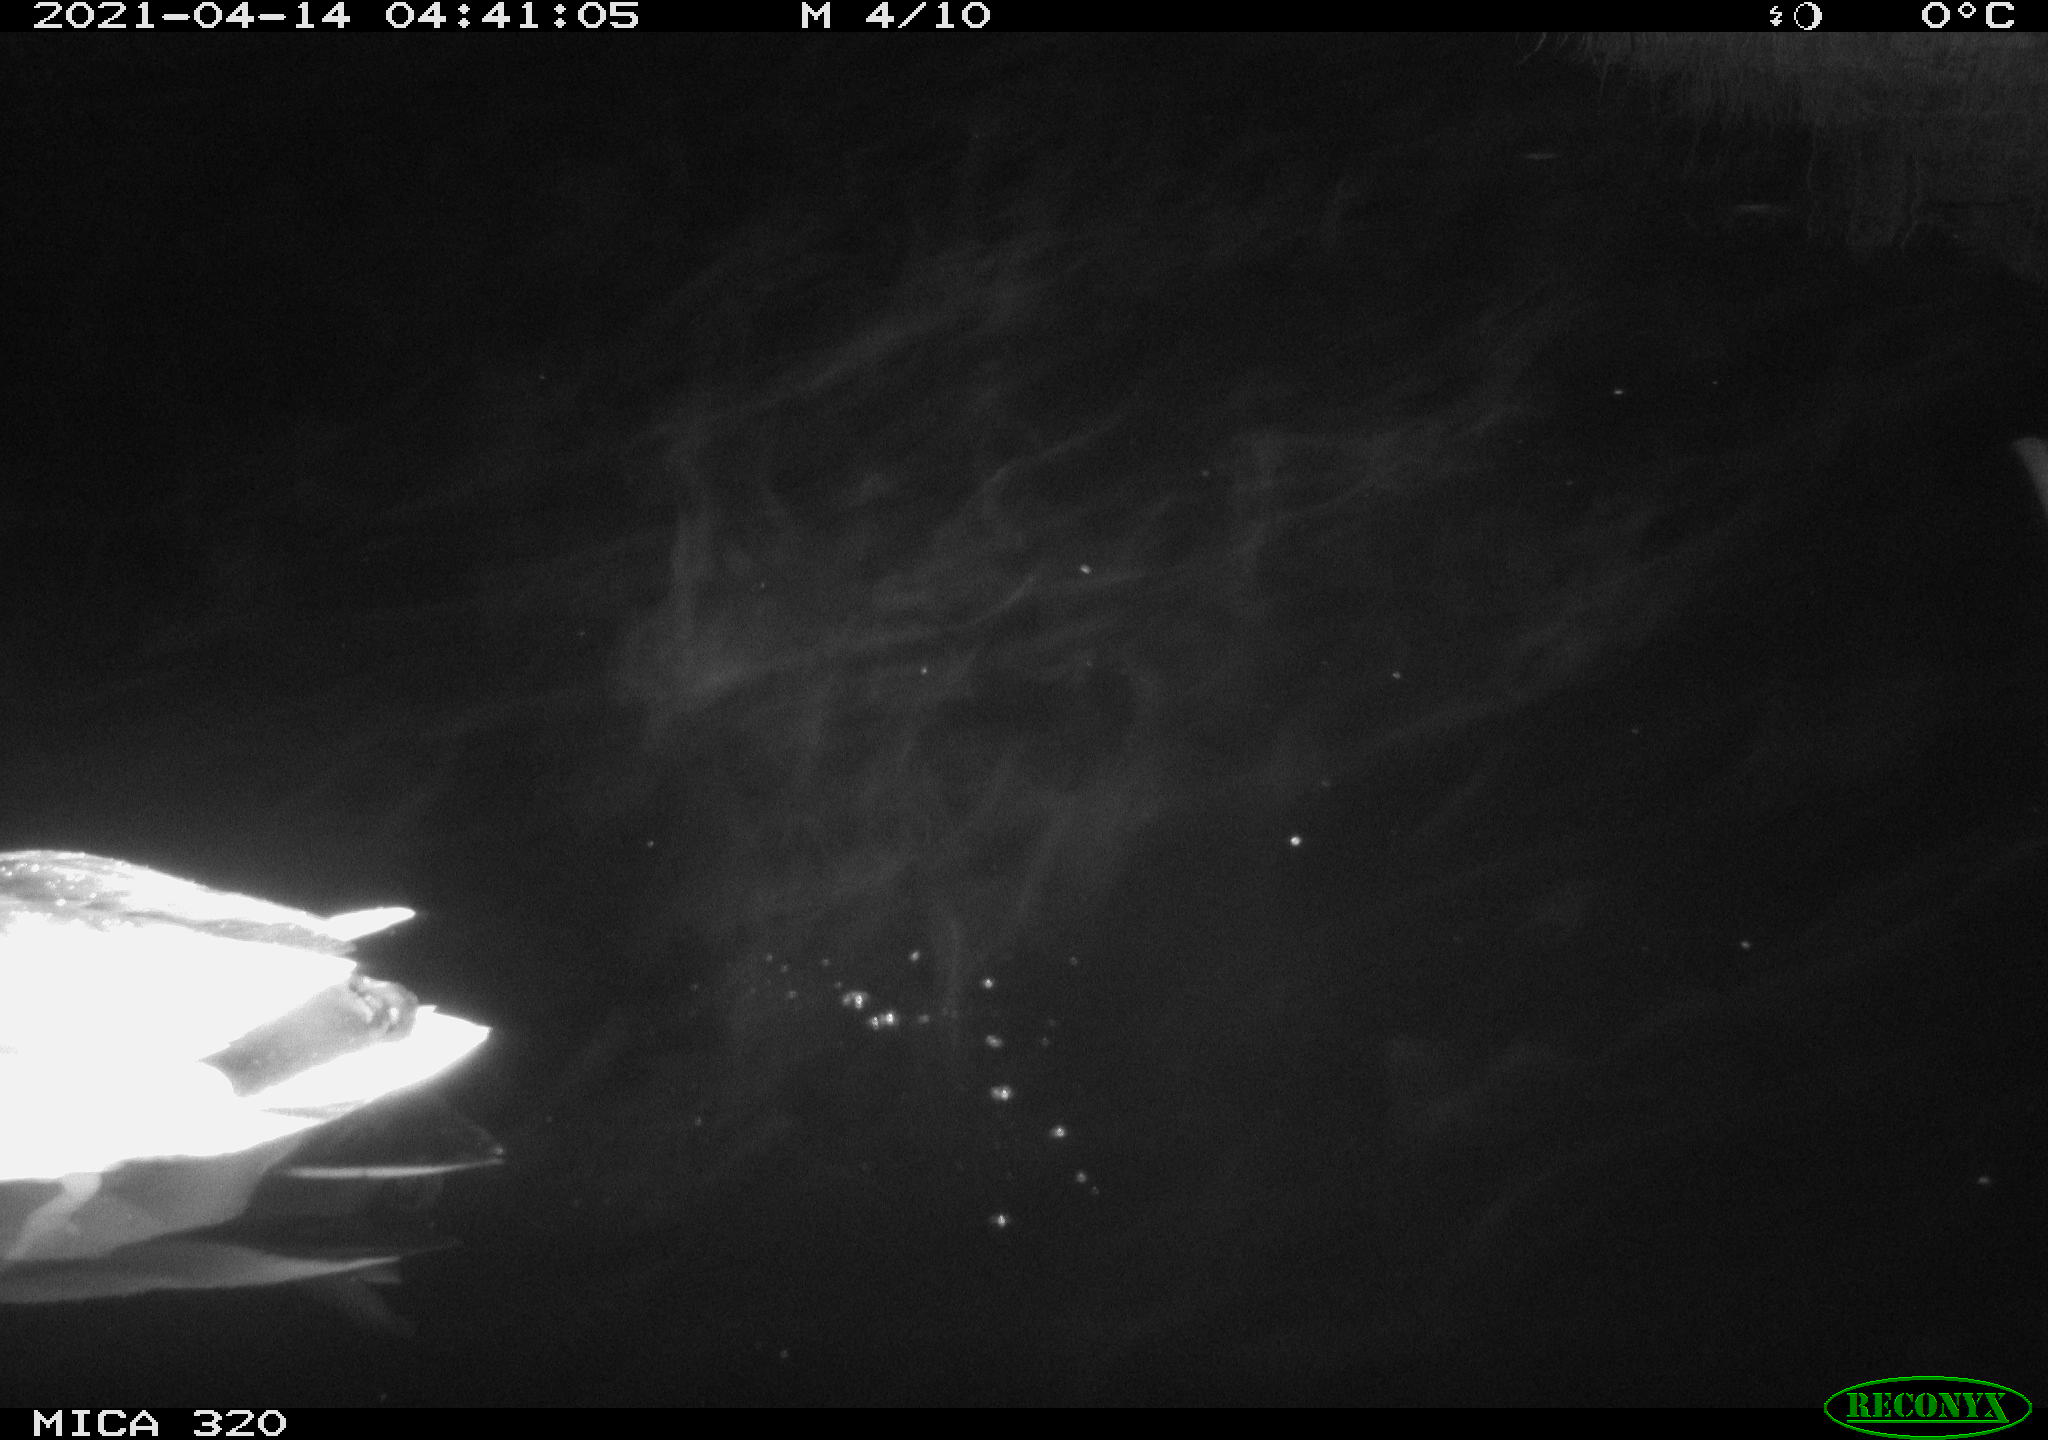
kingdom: Animalia
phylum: Chordata
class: Aves
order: Anseriformes
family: Anatidae
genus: Anas
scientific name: Anas platyrhynchos
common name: Mallard
